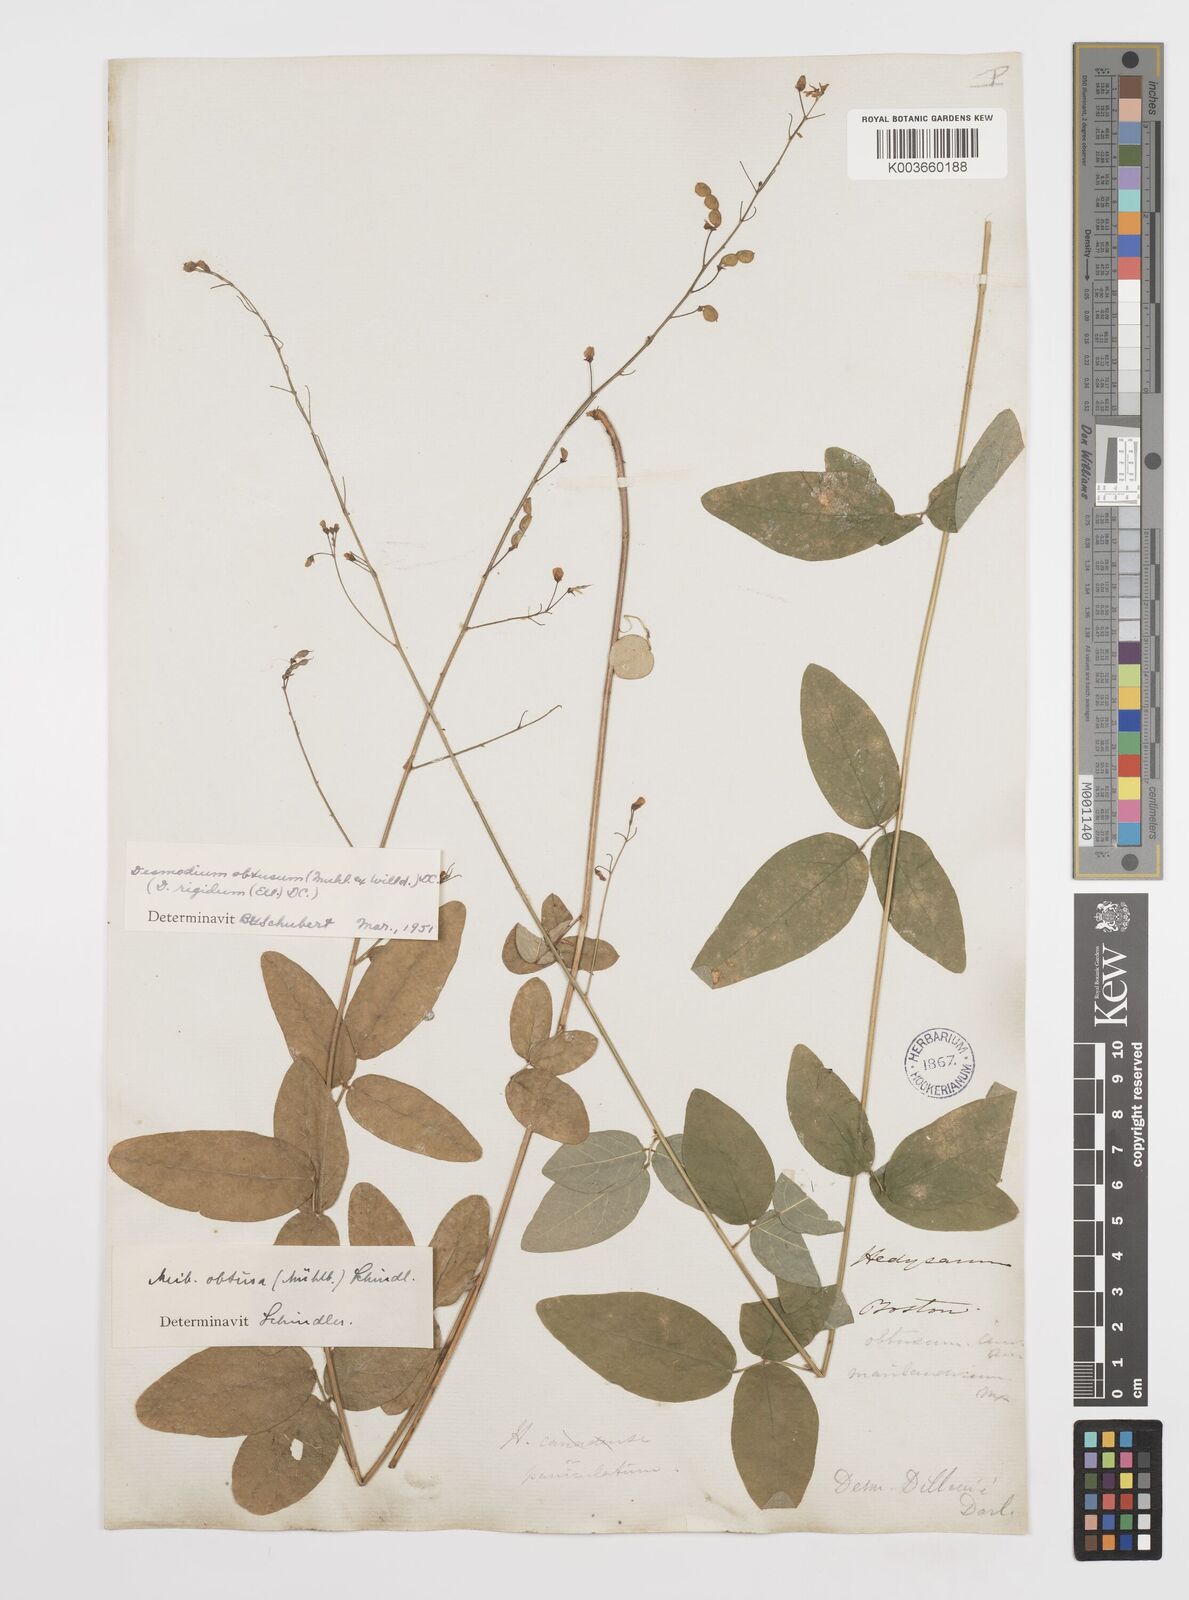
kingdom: Plantae
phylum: Tracheophyta
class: Magnoliopsida
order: Fabales
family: Fabaceae
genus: Desmodium
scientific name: Desmodium obtusum
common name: Stiff tick trefoil
